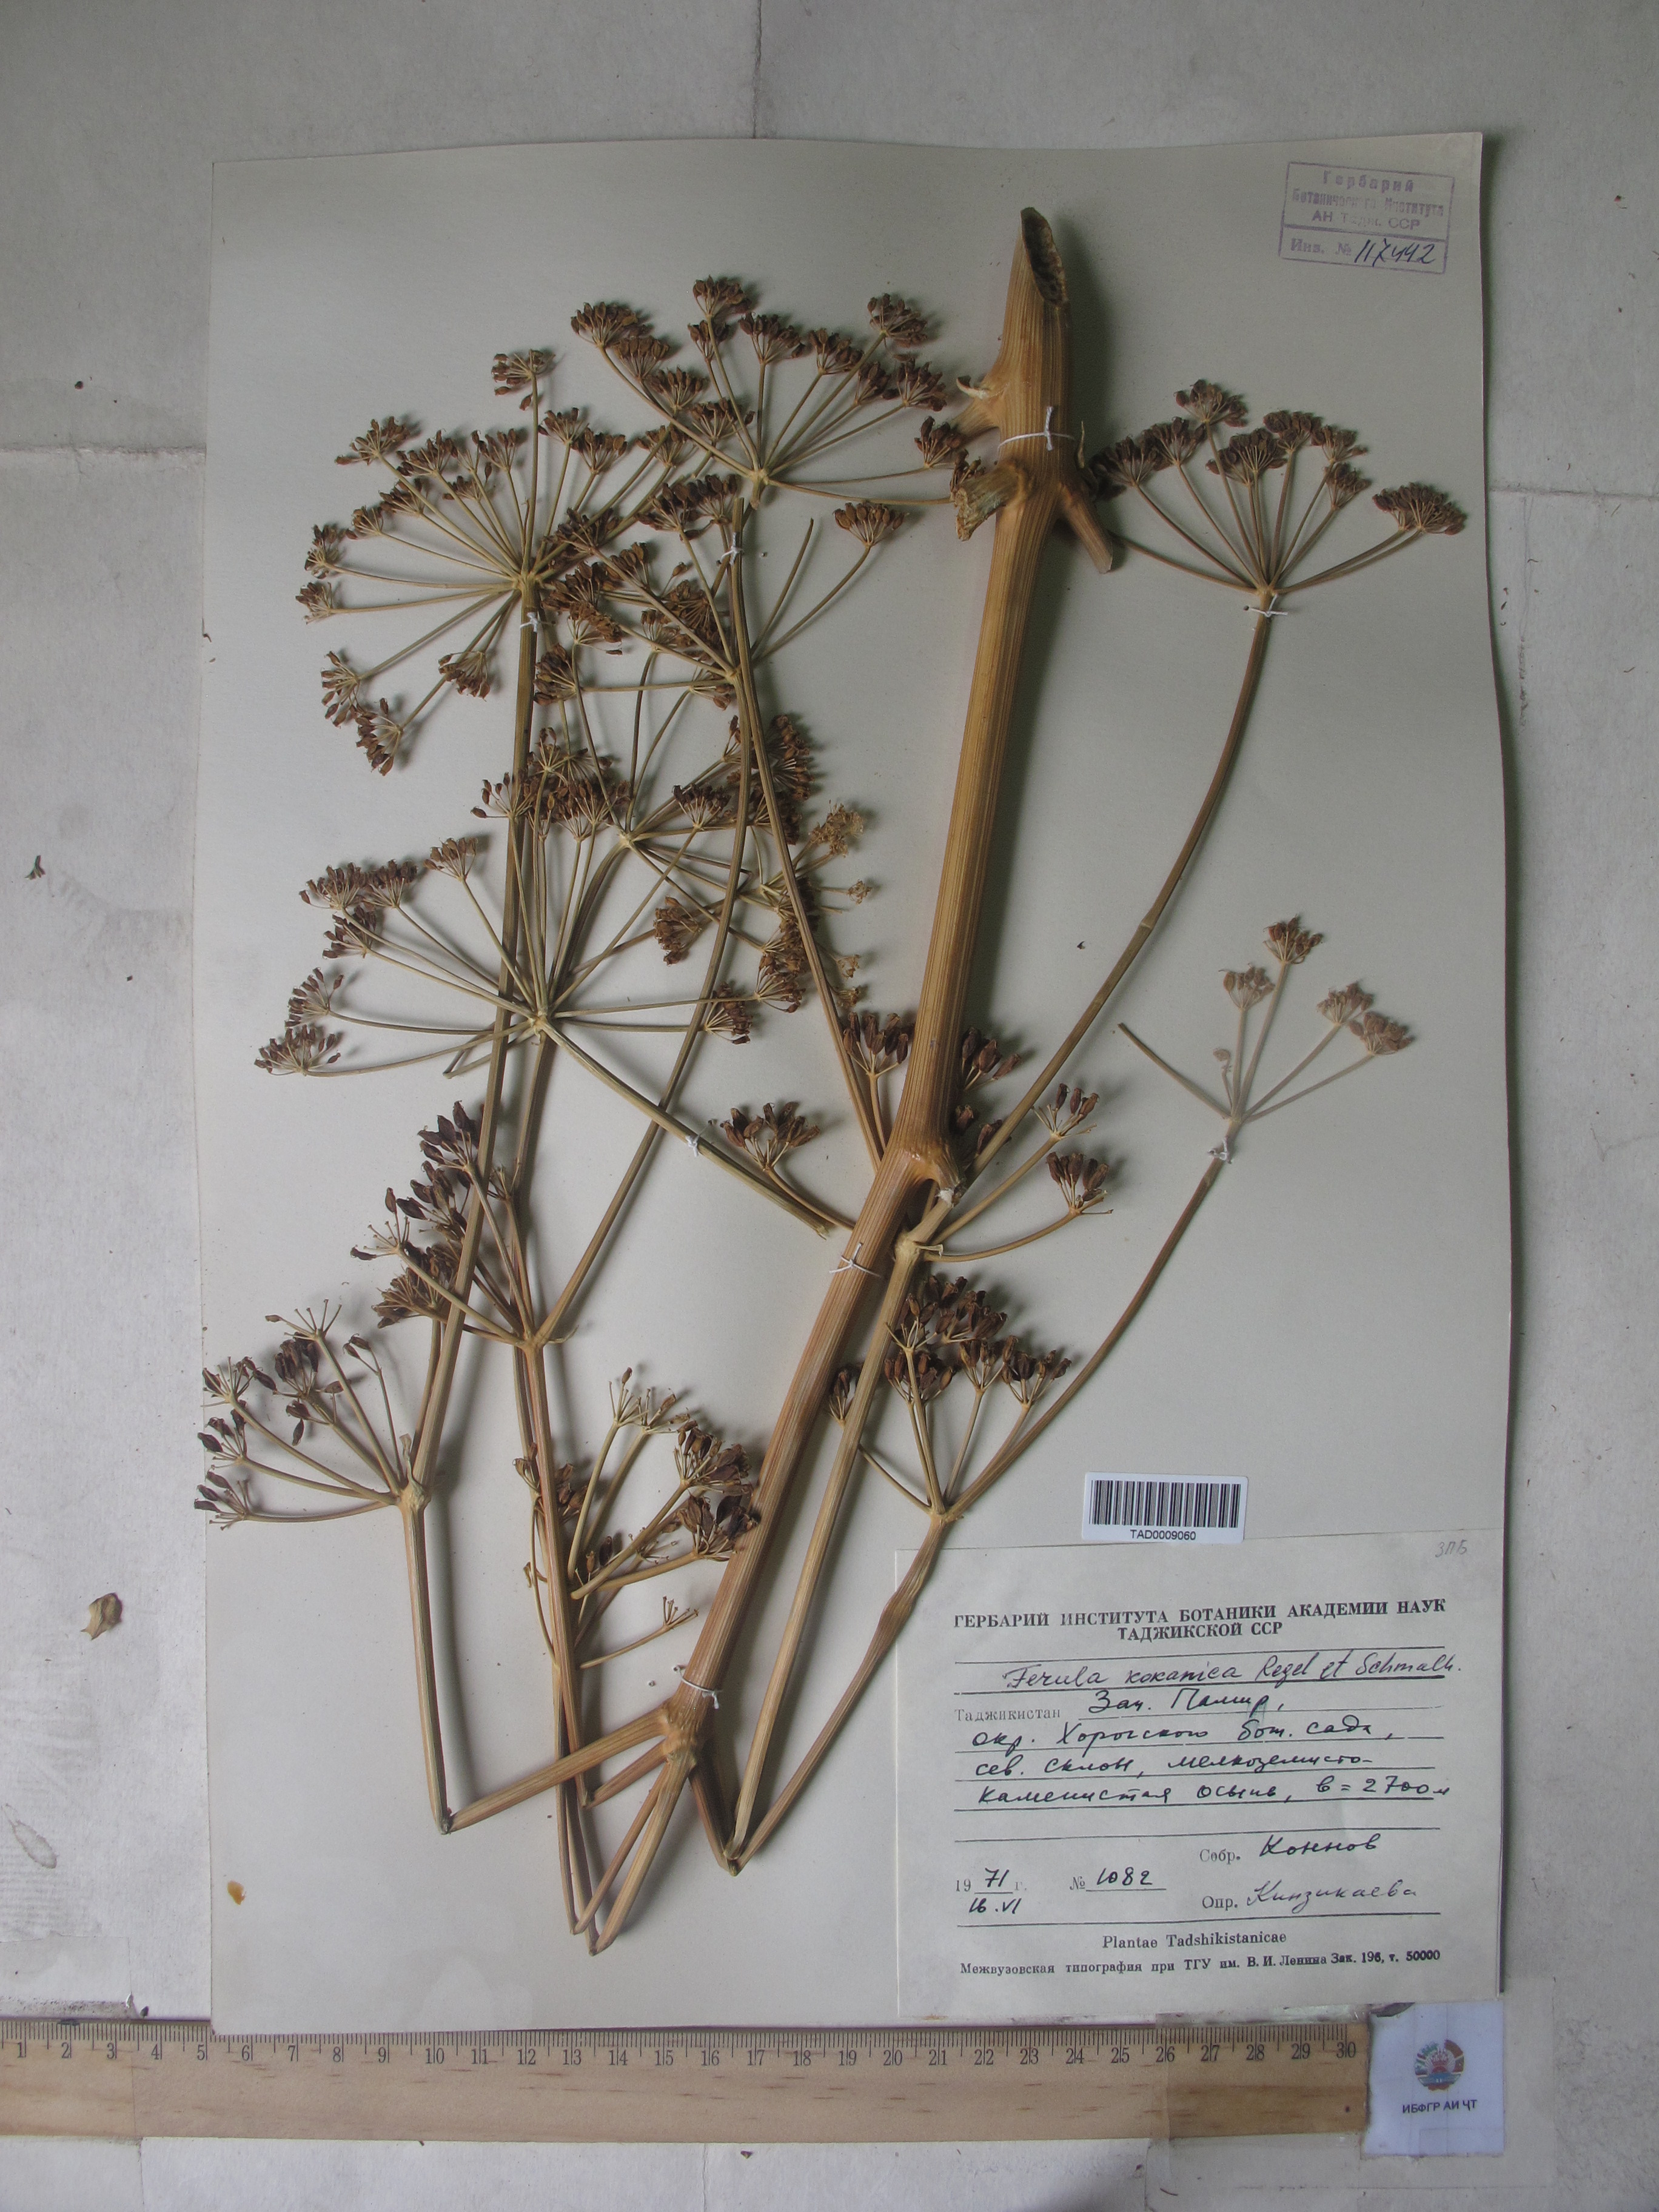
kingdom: Plantae
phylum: Tracheophyta
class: Magnoliopsida
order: Apiales
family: Apiaceae
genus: Ferula
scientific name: Ferula kokanica
